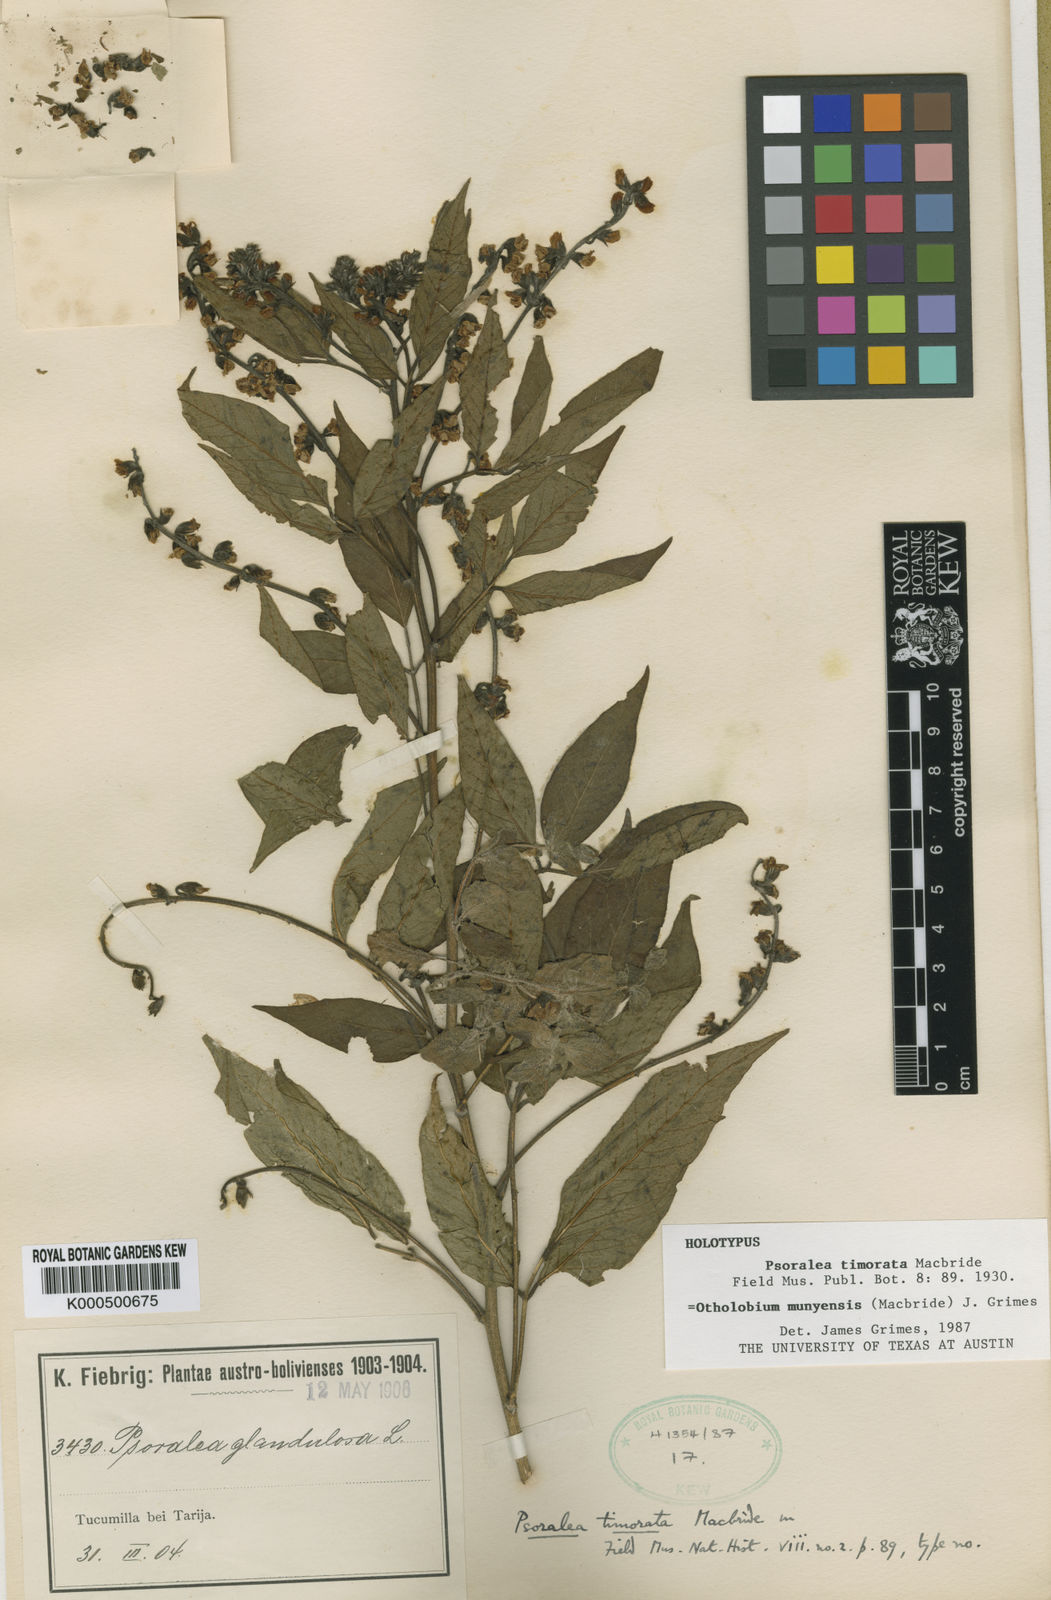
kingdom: Plantae
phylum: Tracheophyta
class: Magnoliopsida
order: Fabales
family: Fabaceae
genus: Psoralea
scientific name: Psoralea Otholobium munyense
